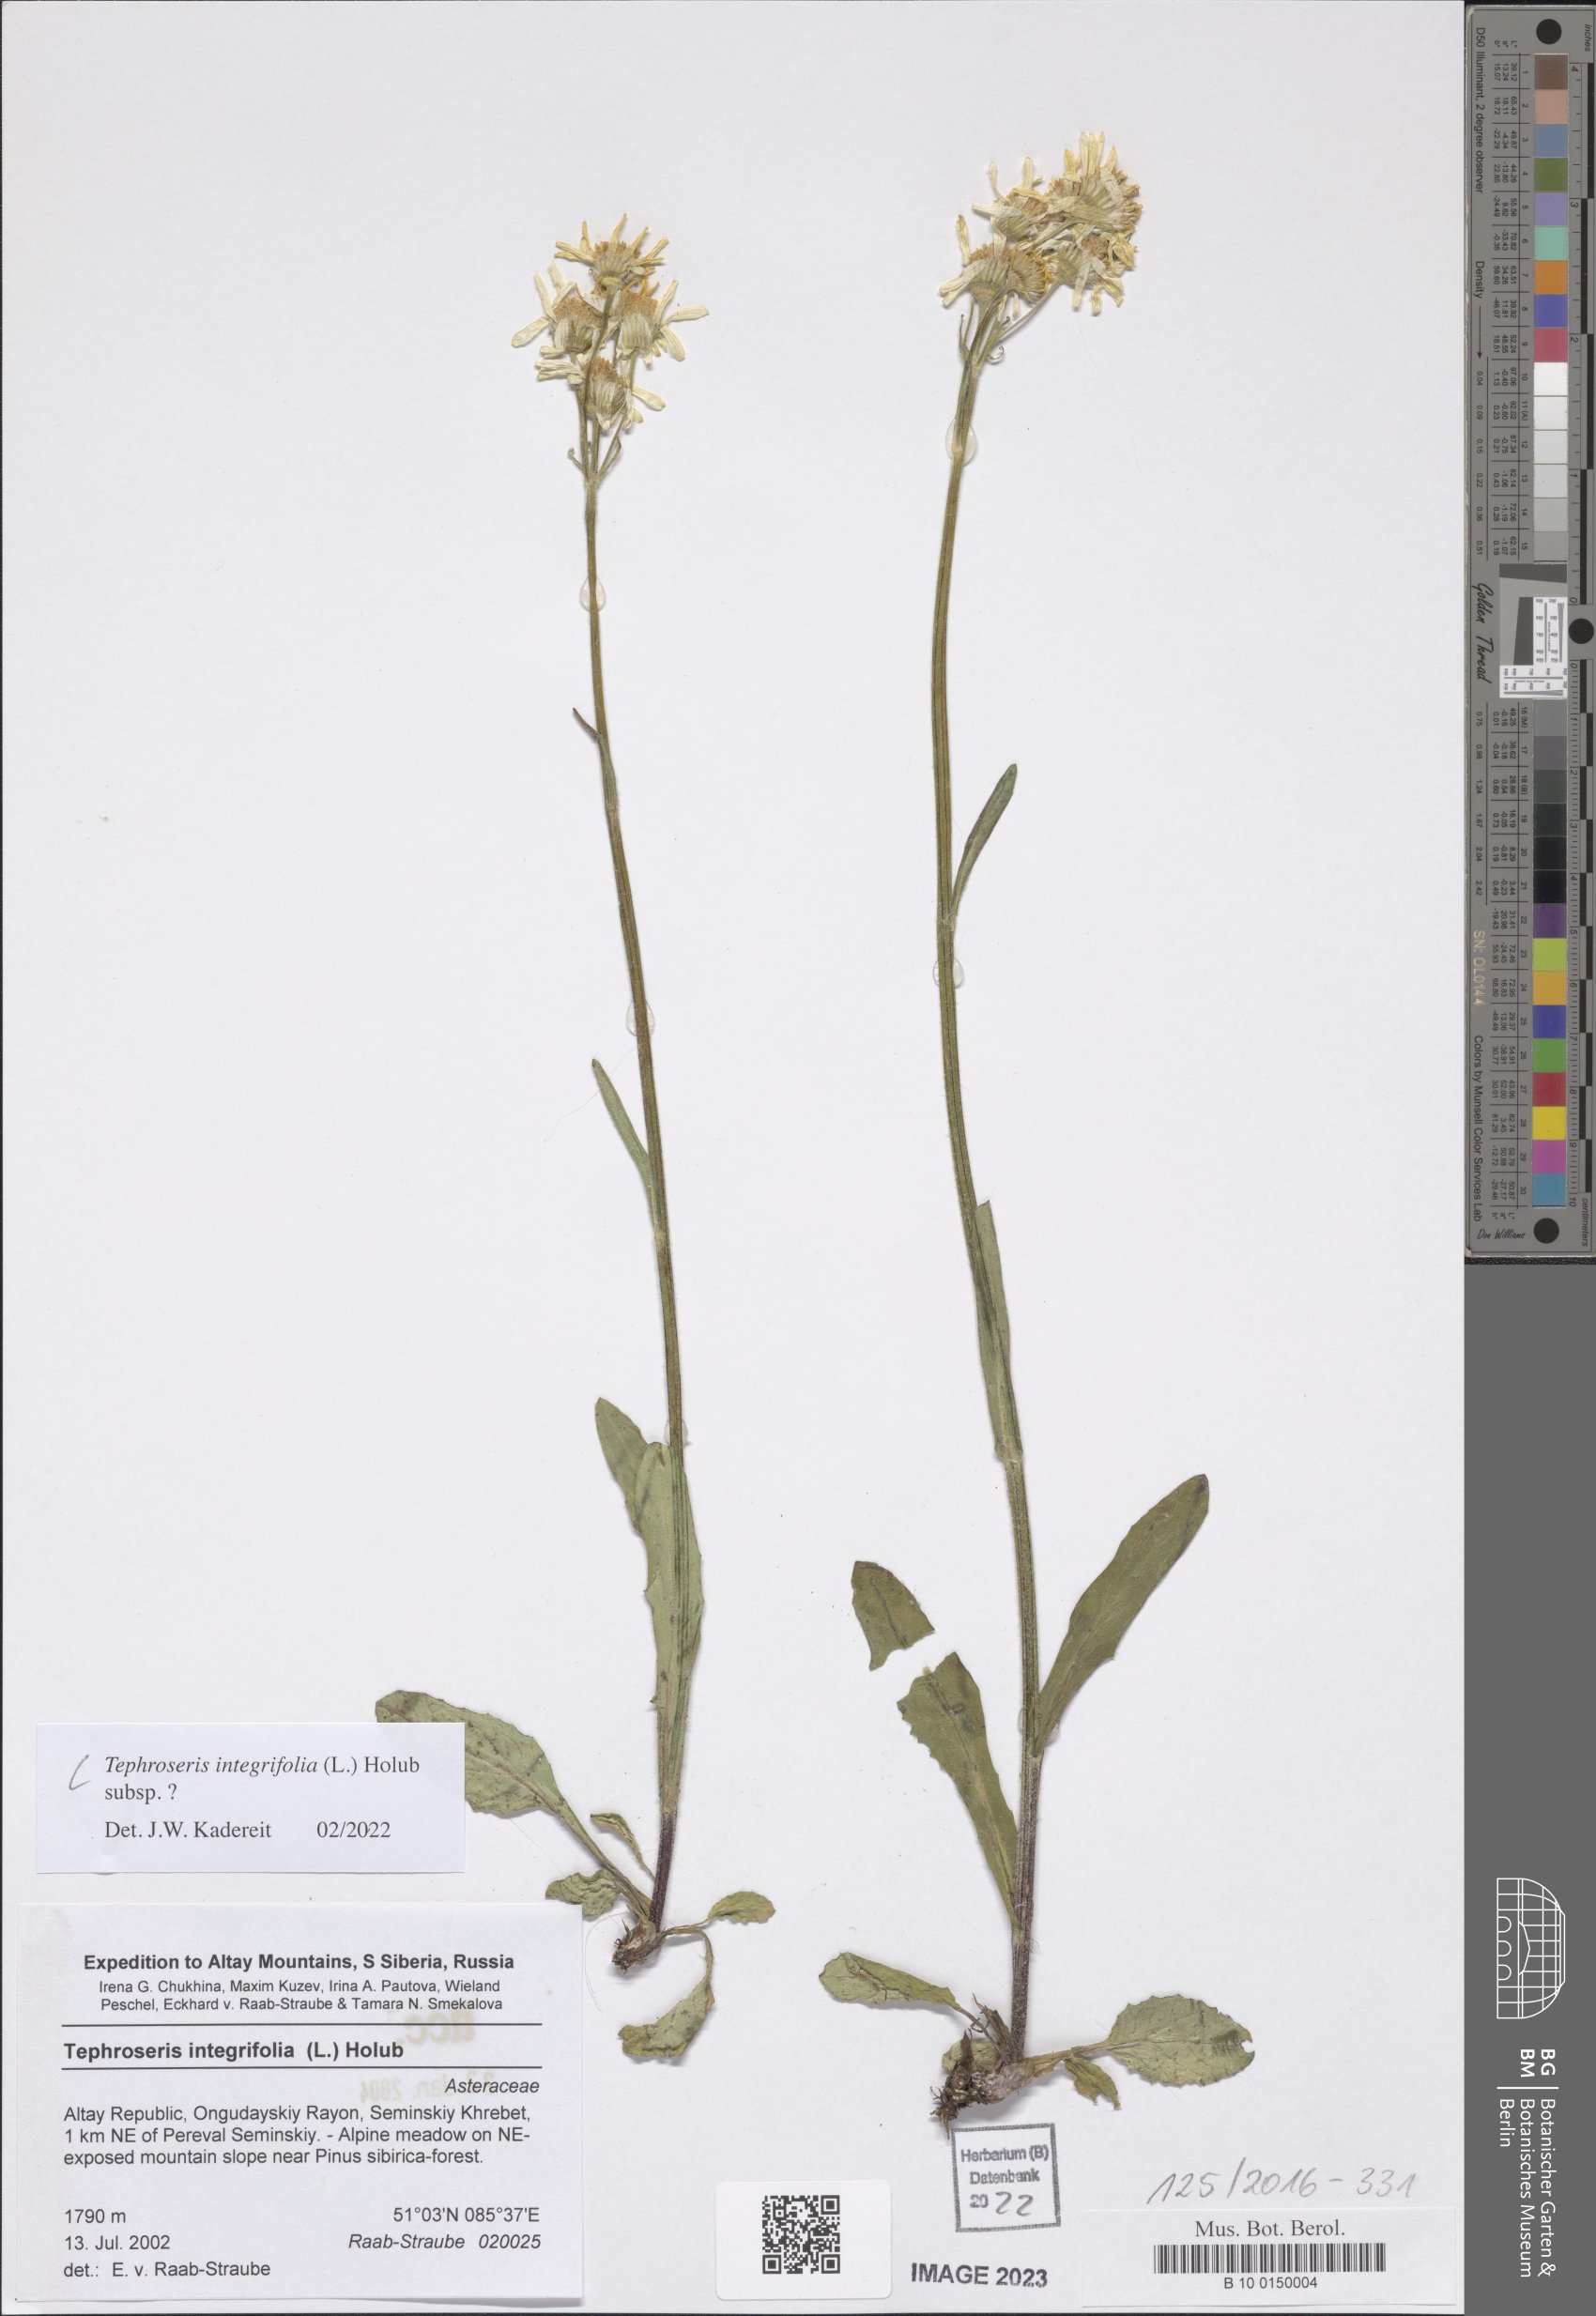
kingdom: Plantae
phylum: Tracheophyta
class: Magnoliopsida
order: Asterales
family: Asteraceae
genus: Tephroseris
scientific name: Tephroseris integrifolia
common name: Field fleawort
